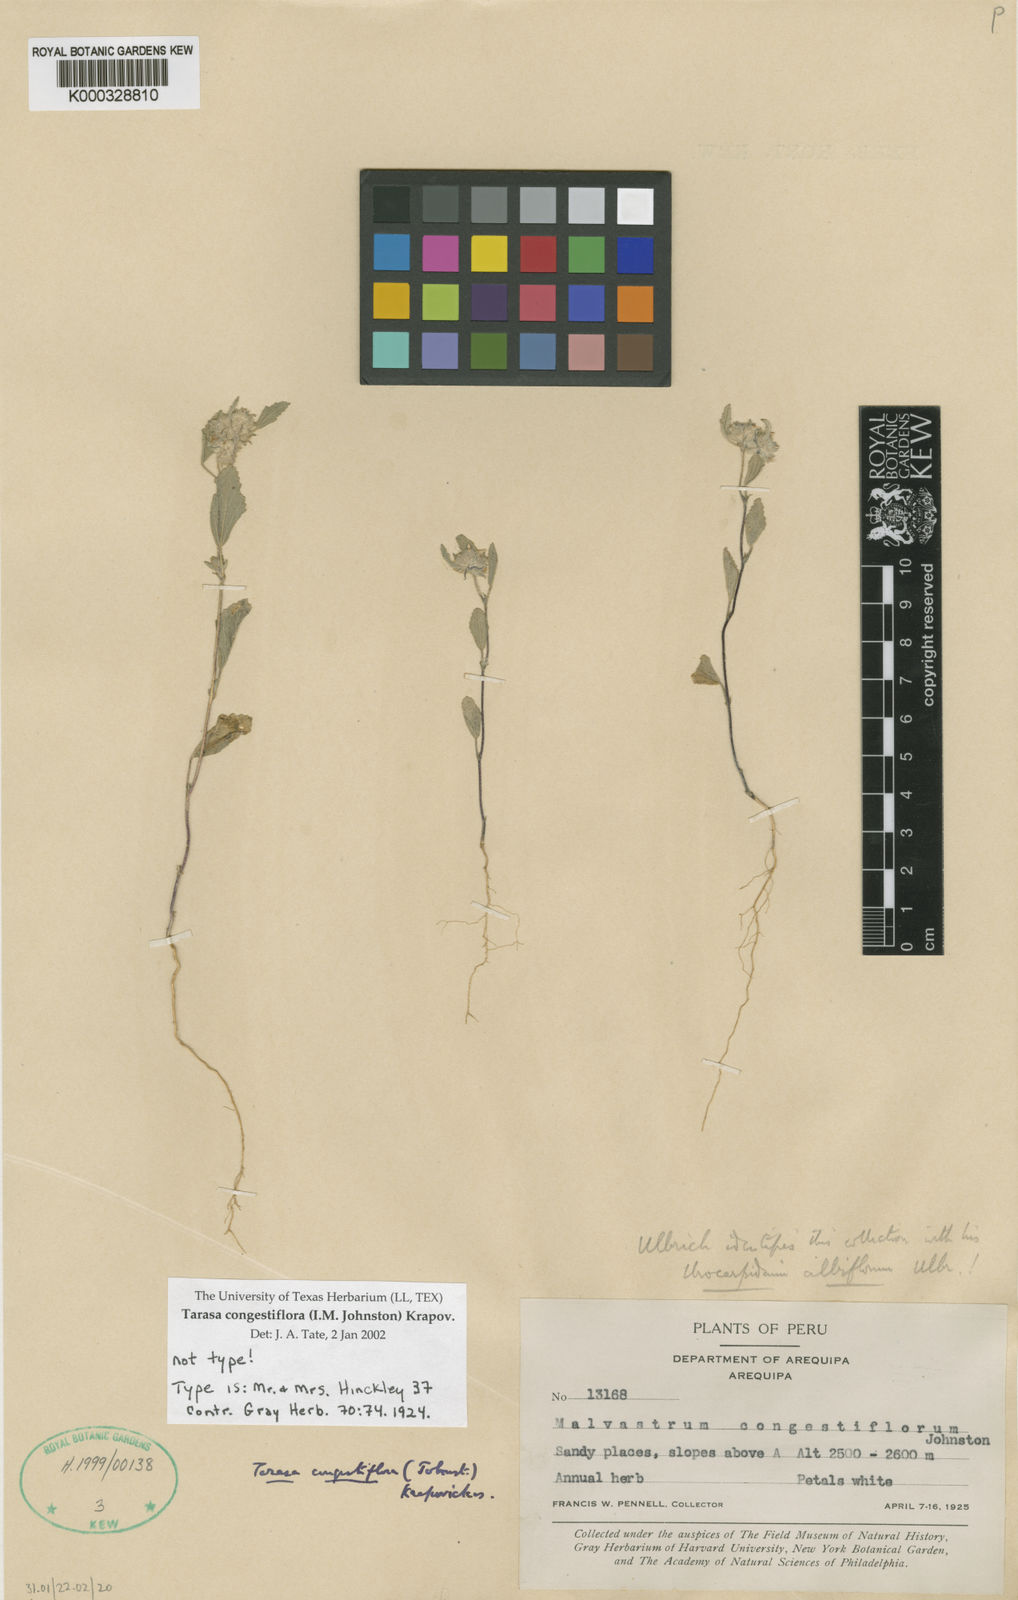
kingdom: Plantae
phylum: Tracheophyta
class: Magnoliopsida
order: Malvales
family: Malvaceae
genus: Tarasa
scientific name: Tarasa congestiflora
